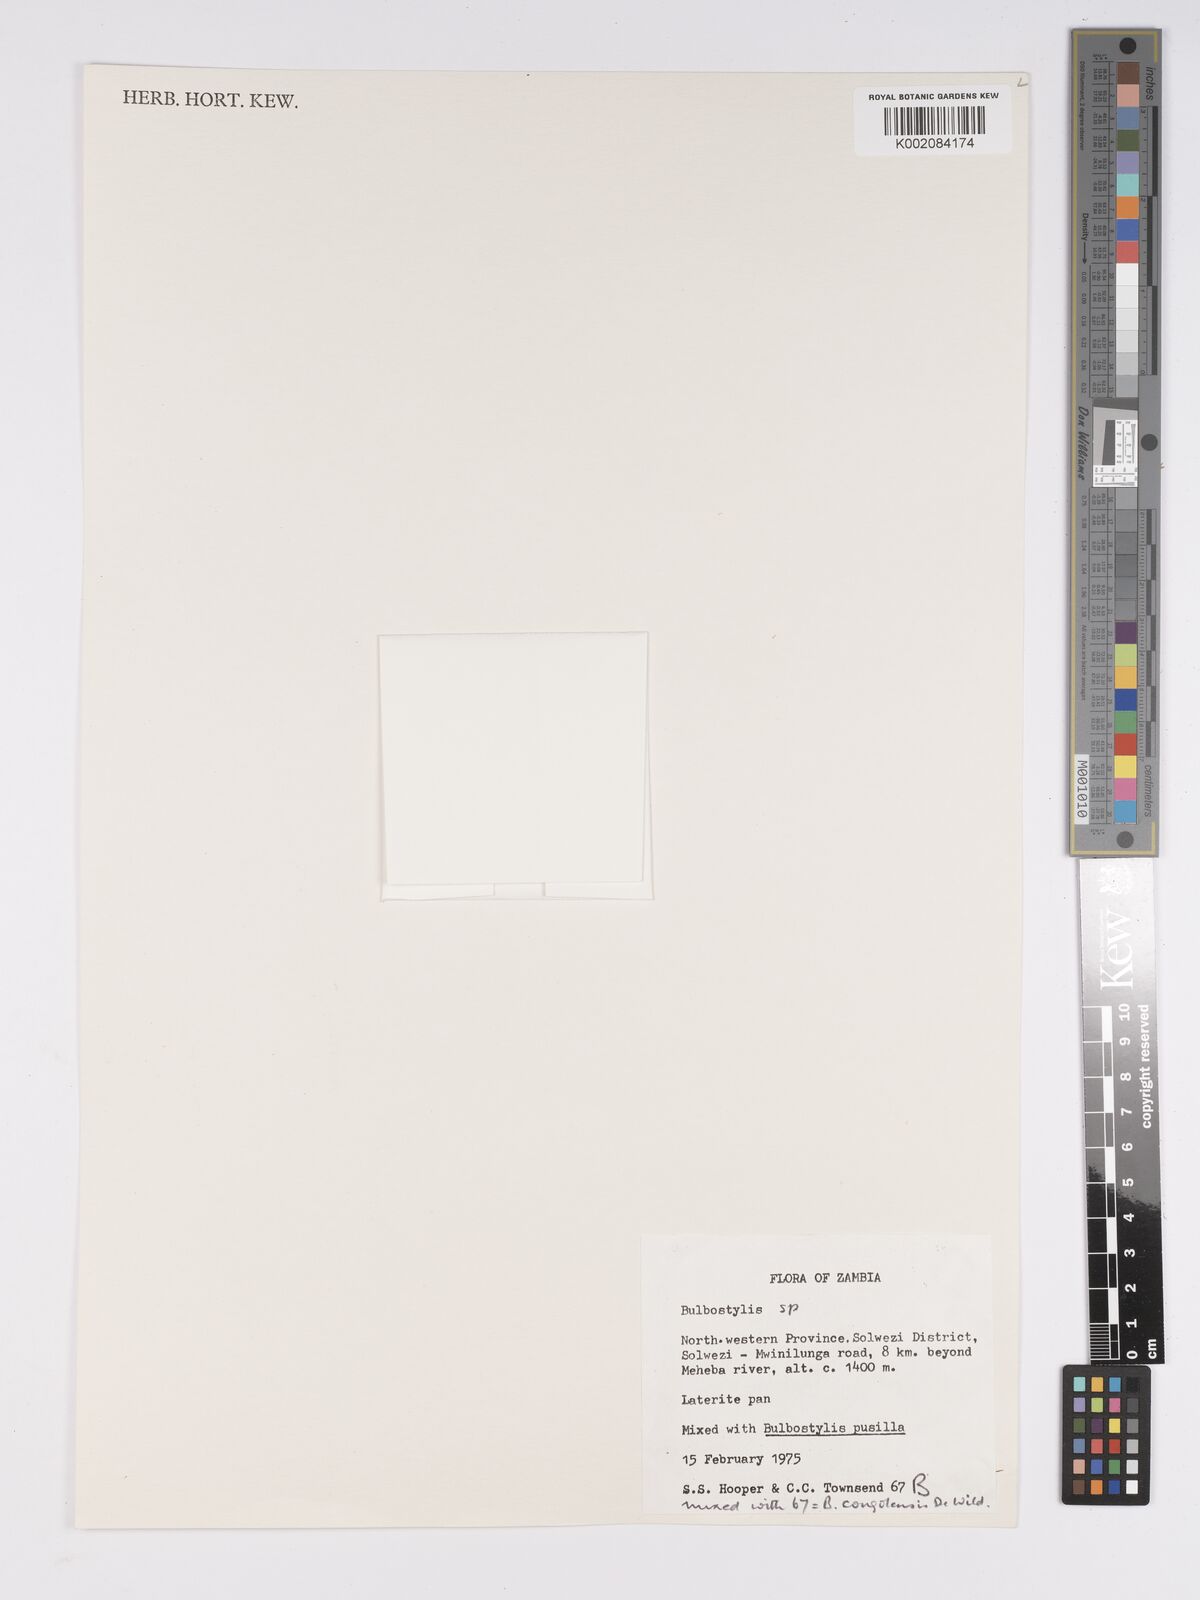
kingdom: Plantae
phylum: Tracheophyta
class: Liliopsida
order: Poales
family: Cyperaceae
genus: Bulbostylis
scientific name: Bulbostylis
